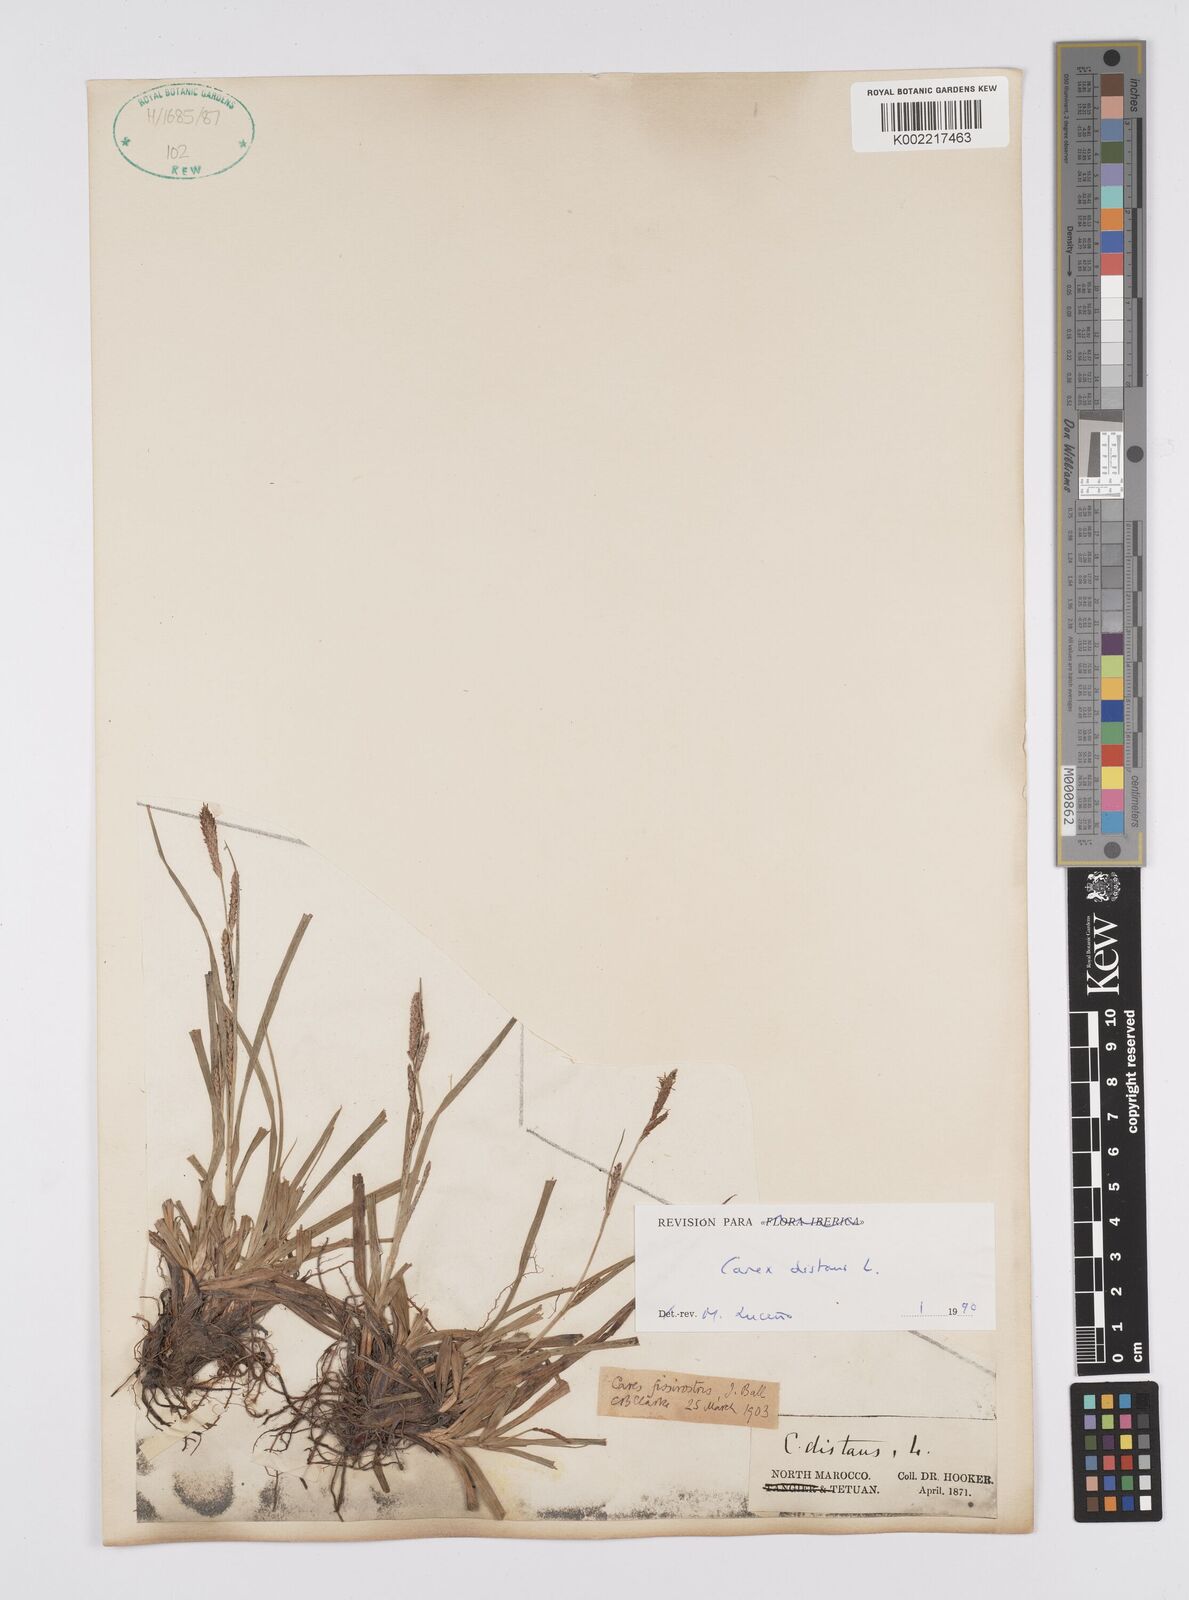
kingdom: Plantae
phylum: Tracheophyta
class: Liliopsida
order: Poales
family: Cyperaceae
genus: Carex
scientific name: Carex distans
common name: Distant sedge
